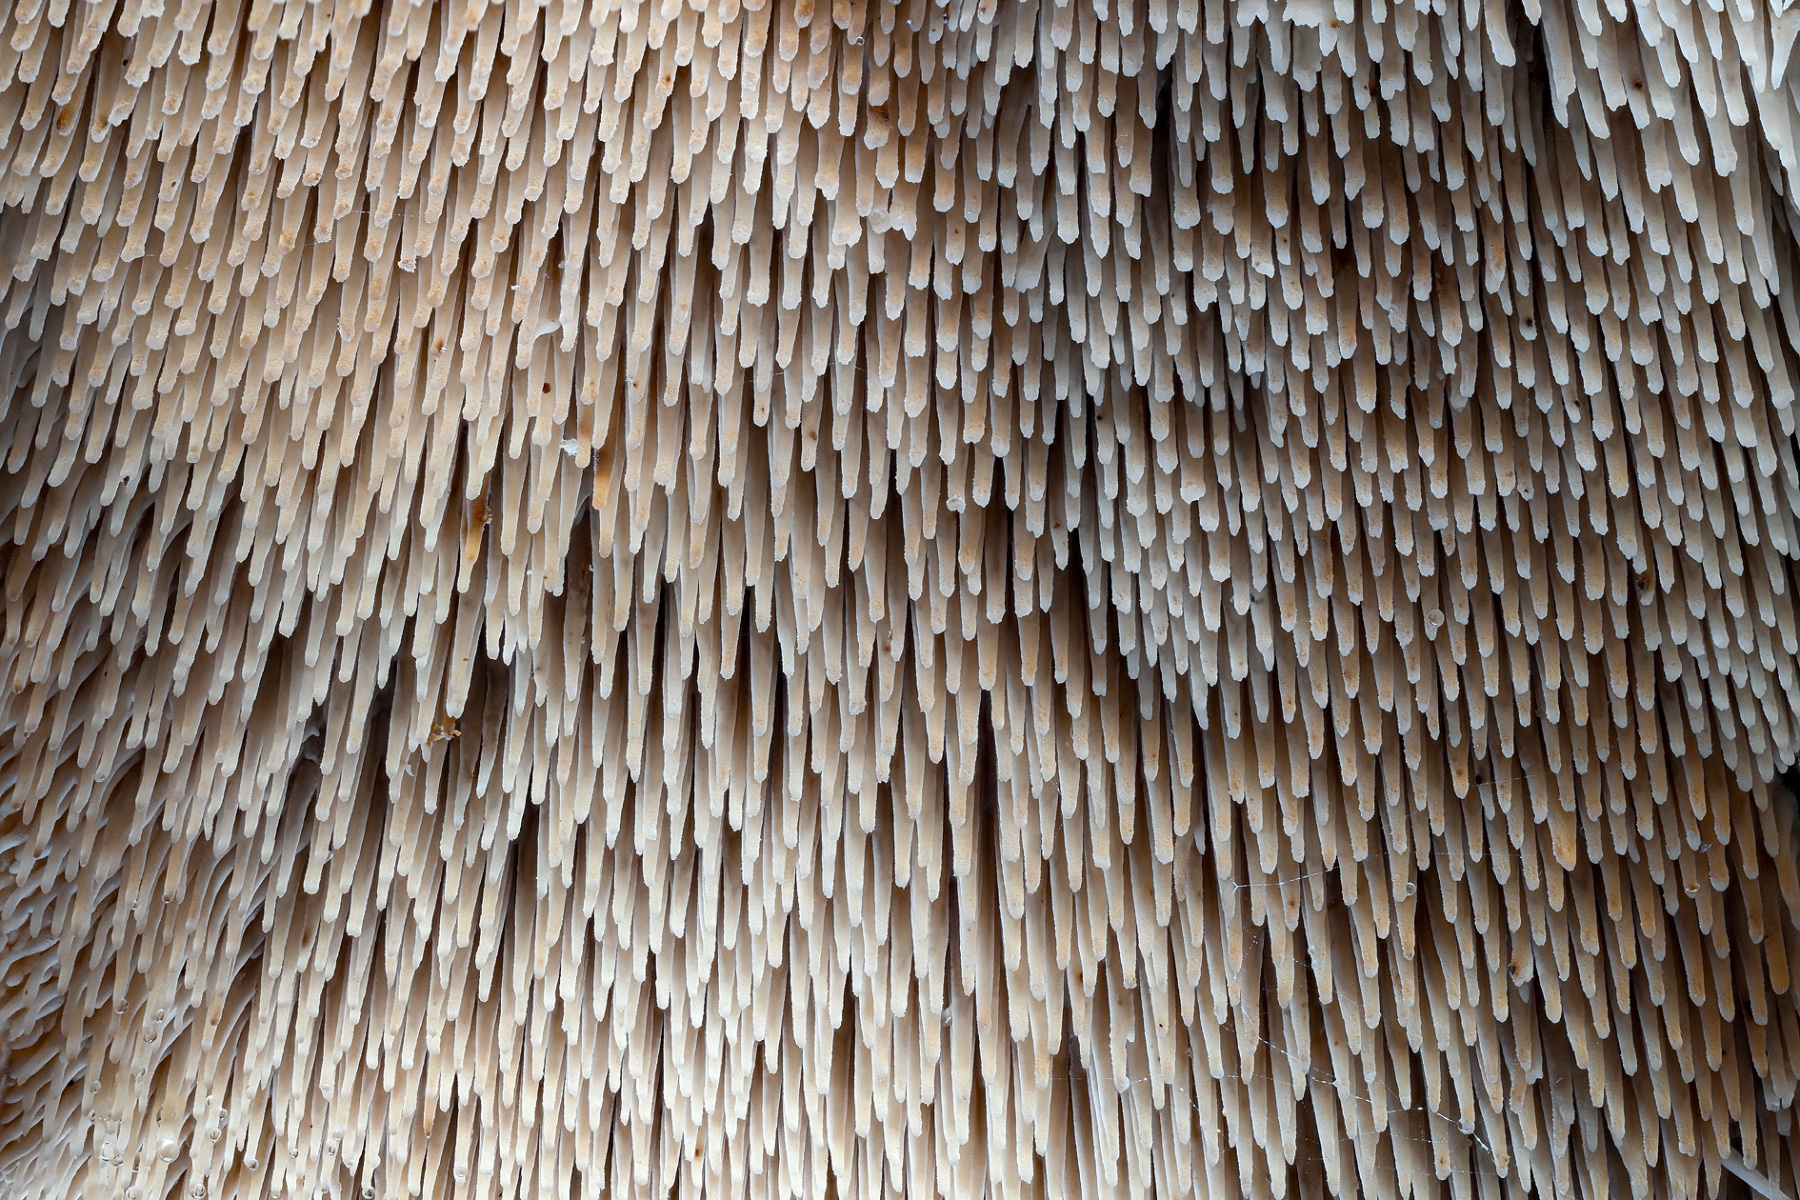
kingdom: Fungi
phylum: Basidiomycota
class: Agaricomycetes
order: Thelephorales
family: Thelephoraceae
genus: Phellodon
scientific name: Phellodon fuligineoalbus
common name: pjusket duftpigsvamp
